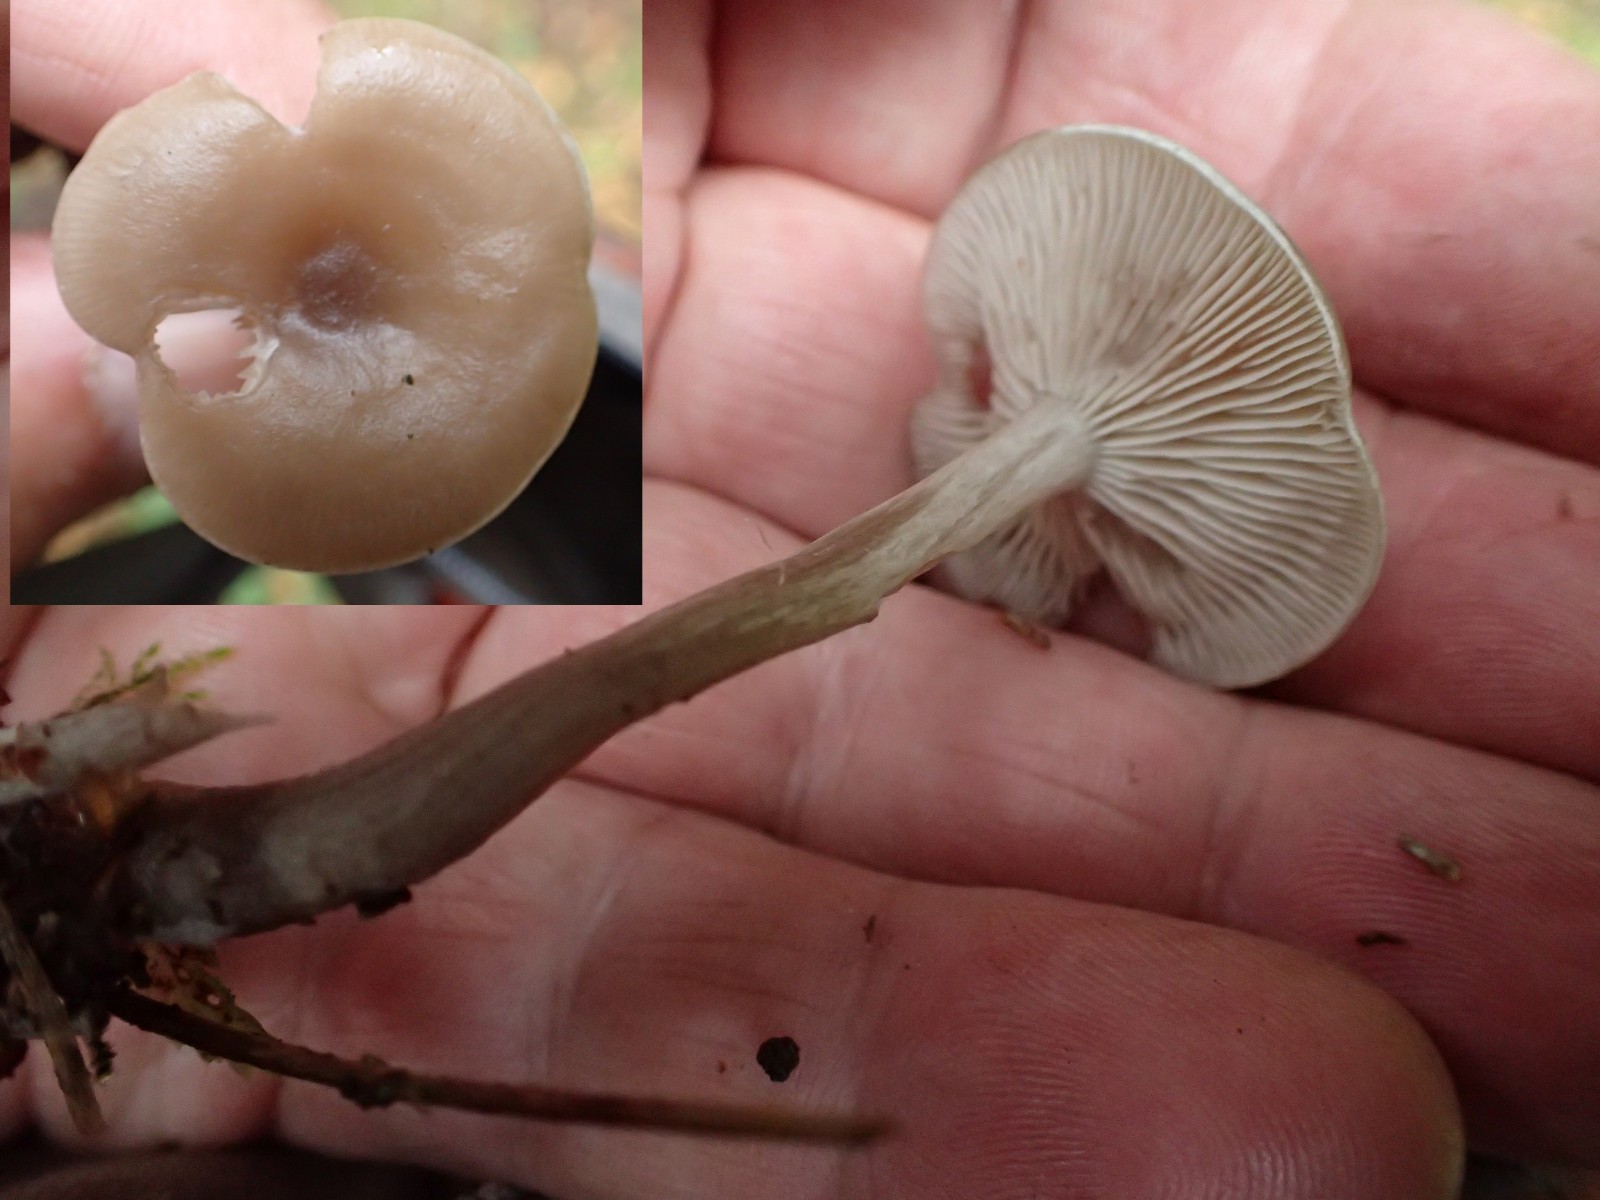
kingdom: Fungi
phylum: Basidiomycota
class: Agaricomycetes
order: Agaricales
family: Tricholomataceae
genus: Clitocybe
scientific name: Clitocybe metachroa
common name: grå tragthat
